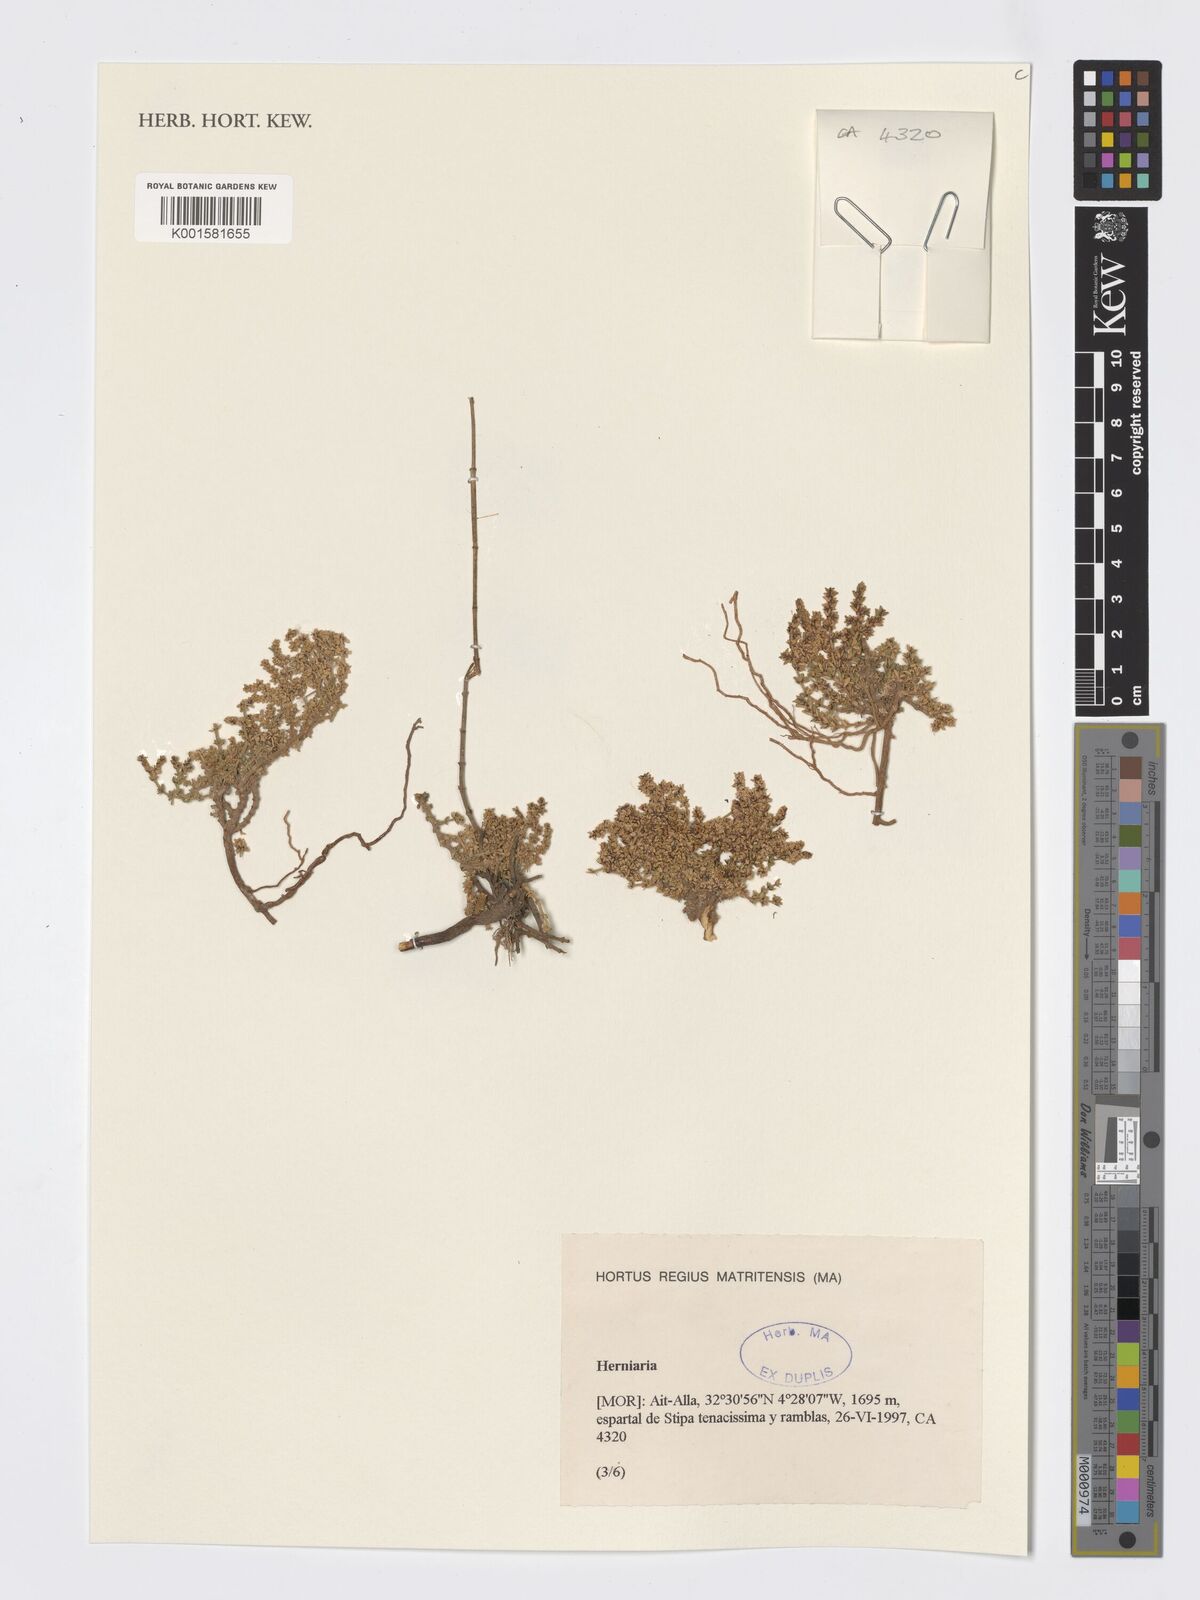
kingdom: Plantae
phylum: Tracheophyta
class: Magnoliopsida
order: Caryophyllales
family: Caryophyllaceae
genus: Herniaria
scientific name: Herniaria
